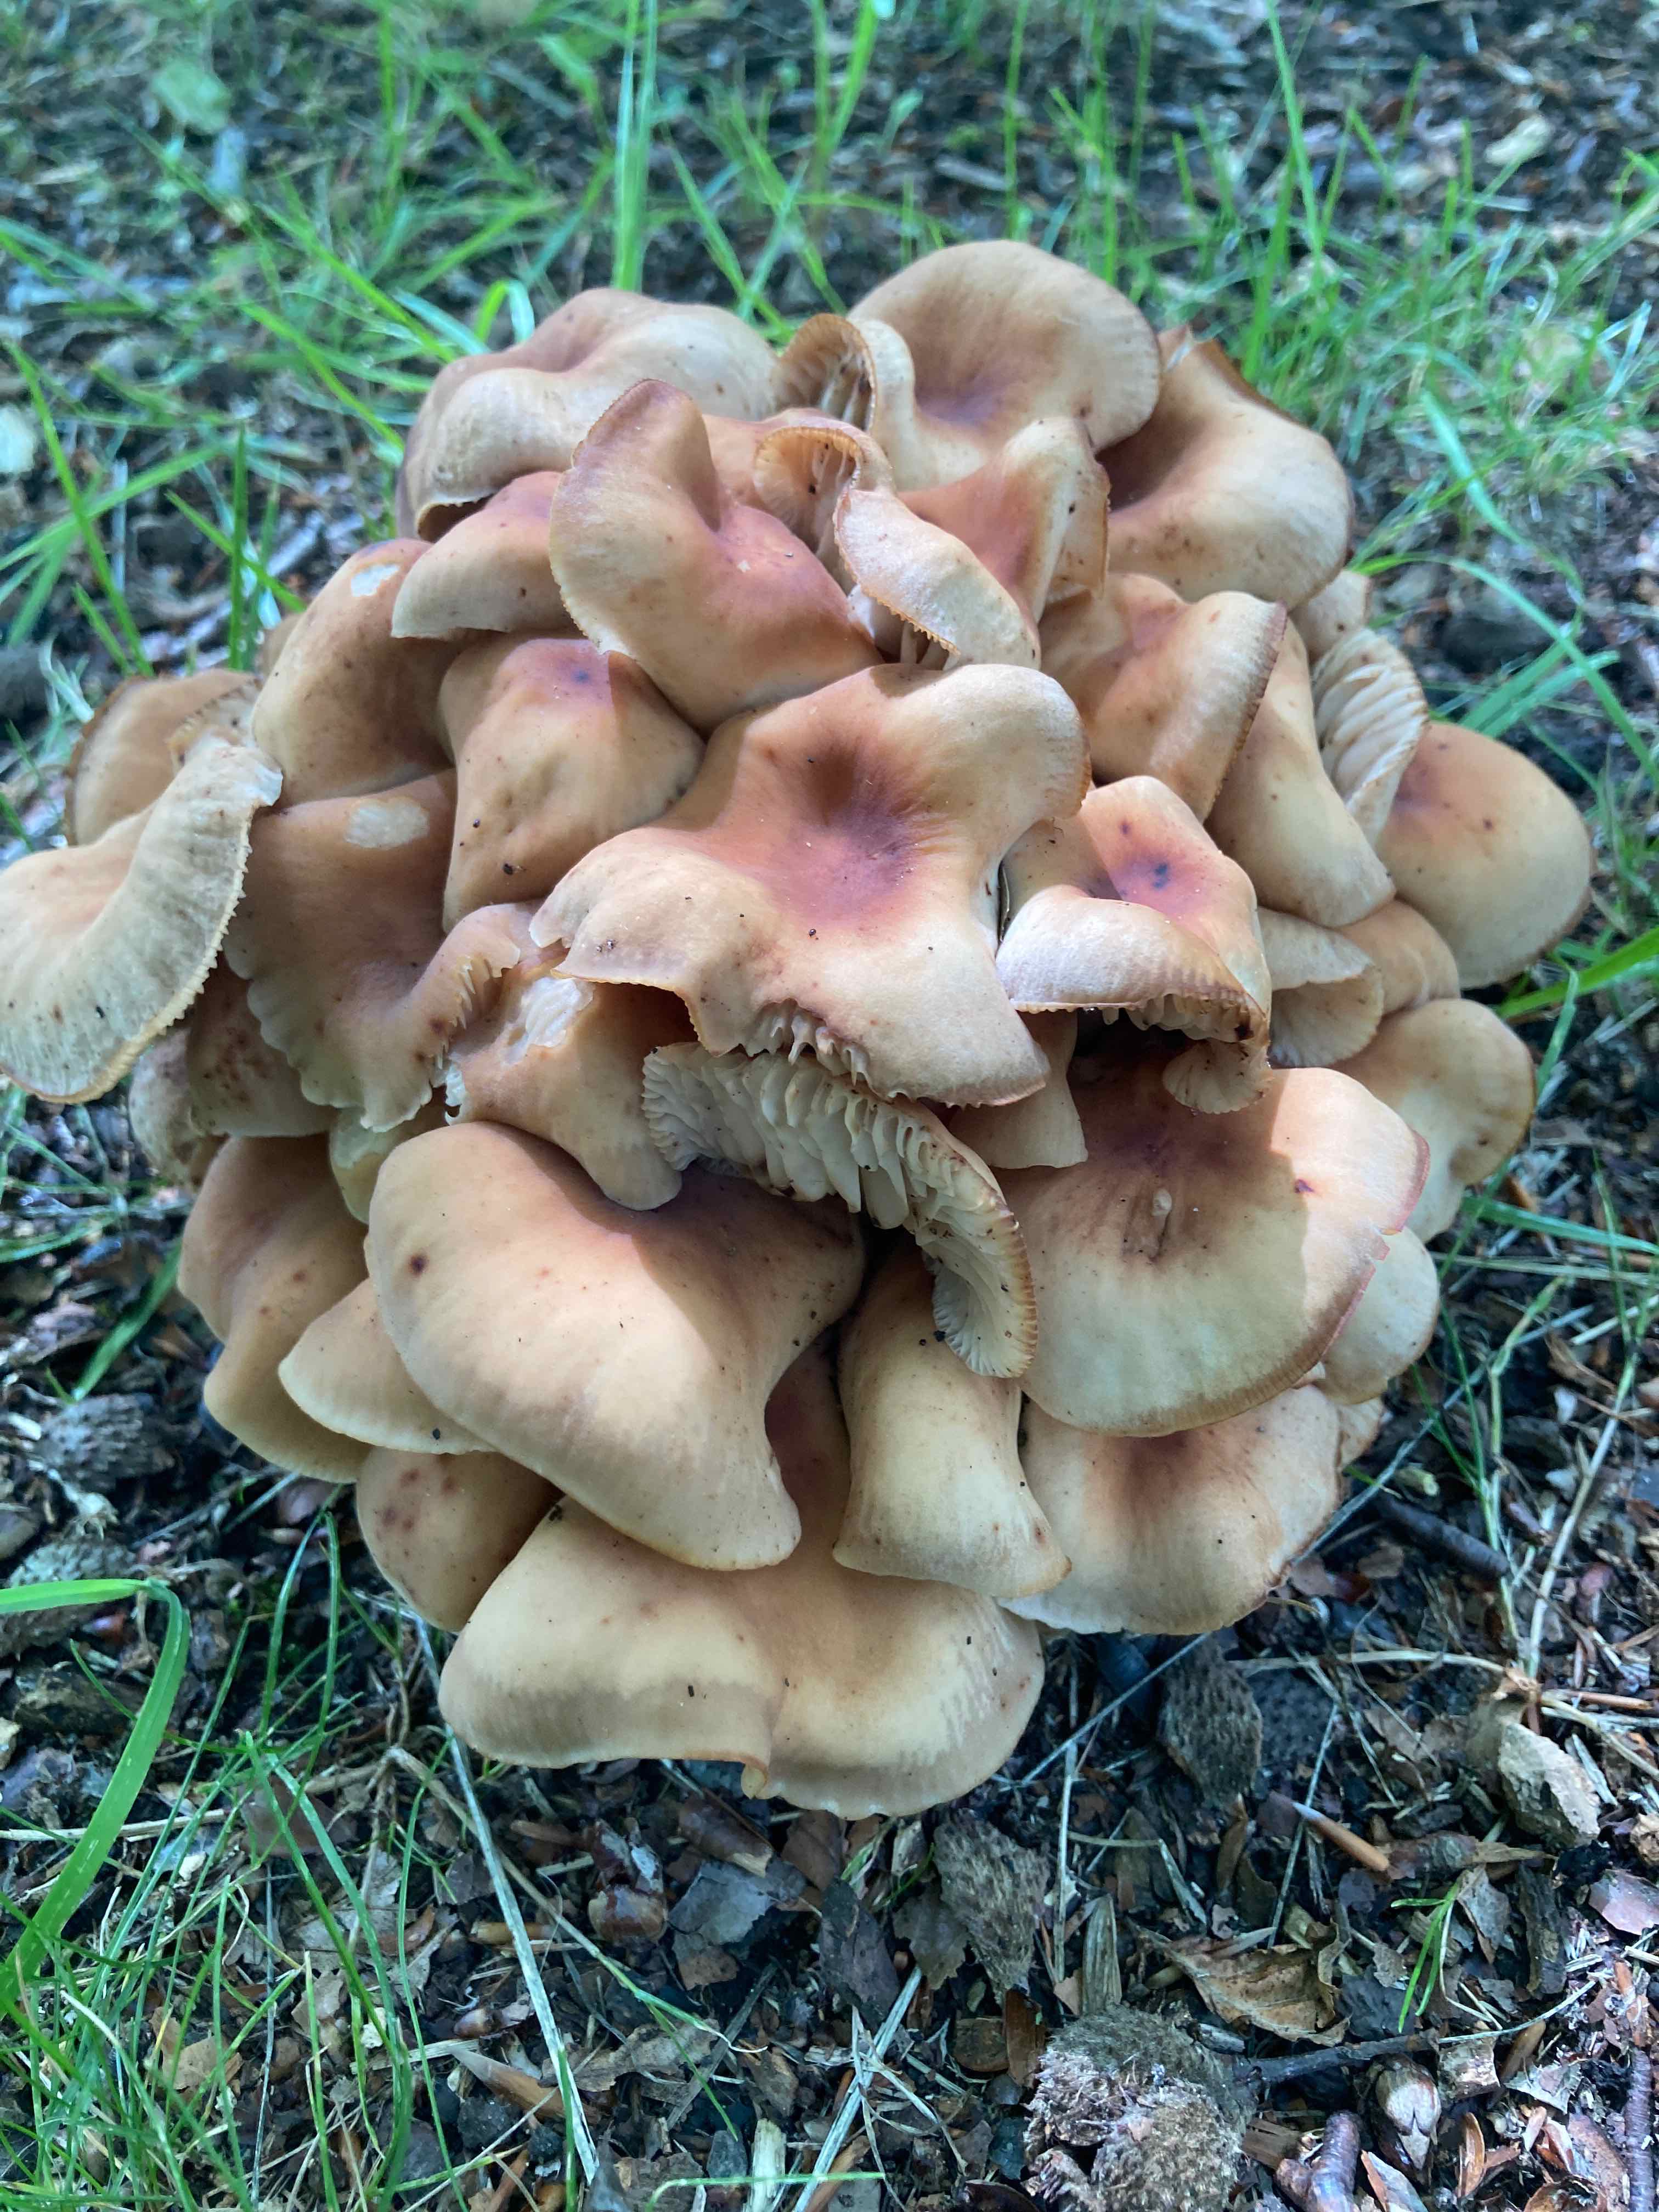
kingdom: Fungi
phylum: Basidiomycota
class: Agaricomycetes
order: Agaricales
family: Omphalotaceae
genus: Gymnopus
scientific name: Gymnopus fusipes
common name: tenstokket fladhat
